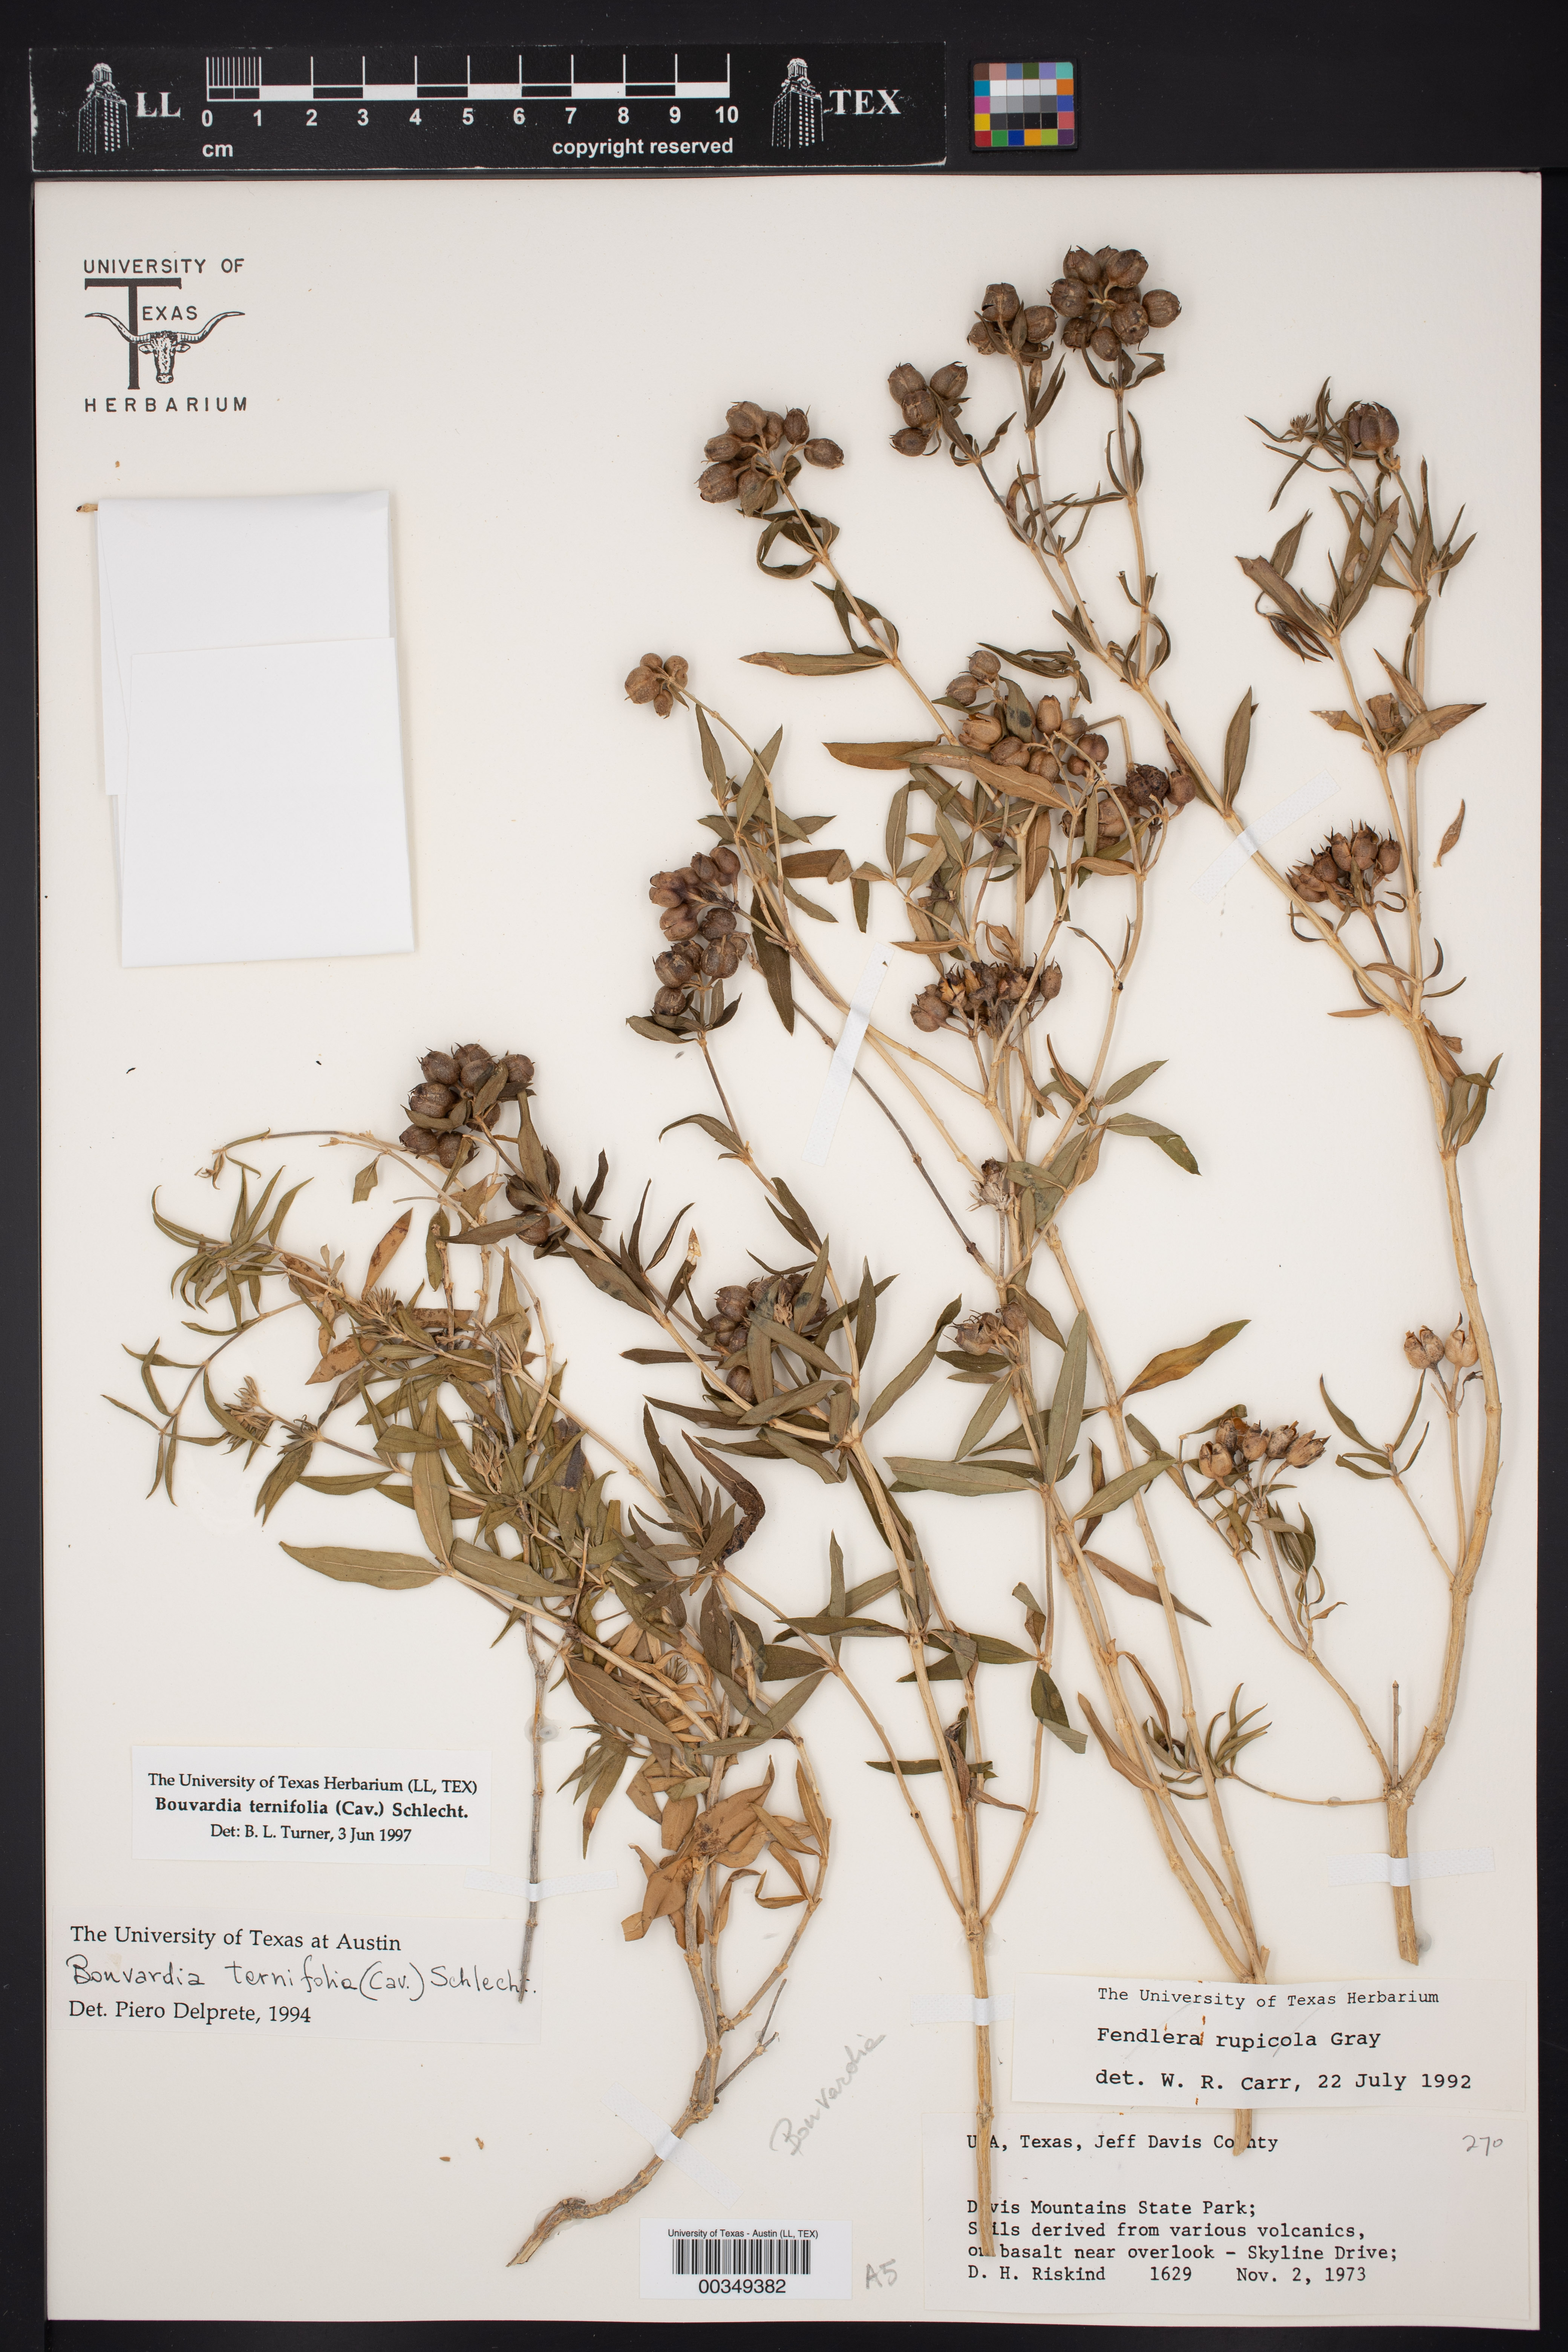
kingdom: Plantae
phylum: Tracheophyta
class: Magnoliopsida
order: Gentianales
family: Rubiaceae
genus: Bouvardia
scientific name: Bouvardia ternifolia
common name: Scarlet bouvardia
